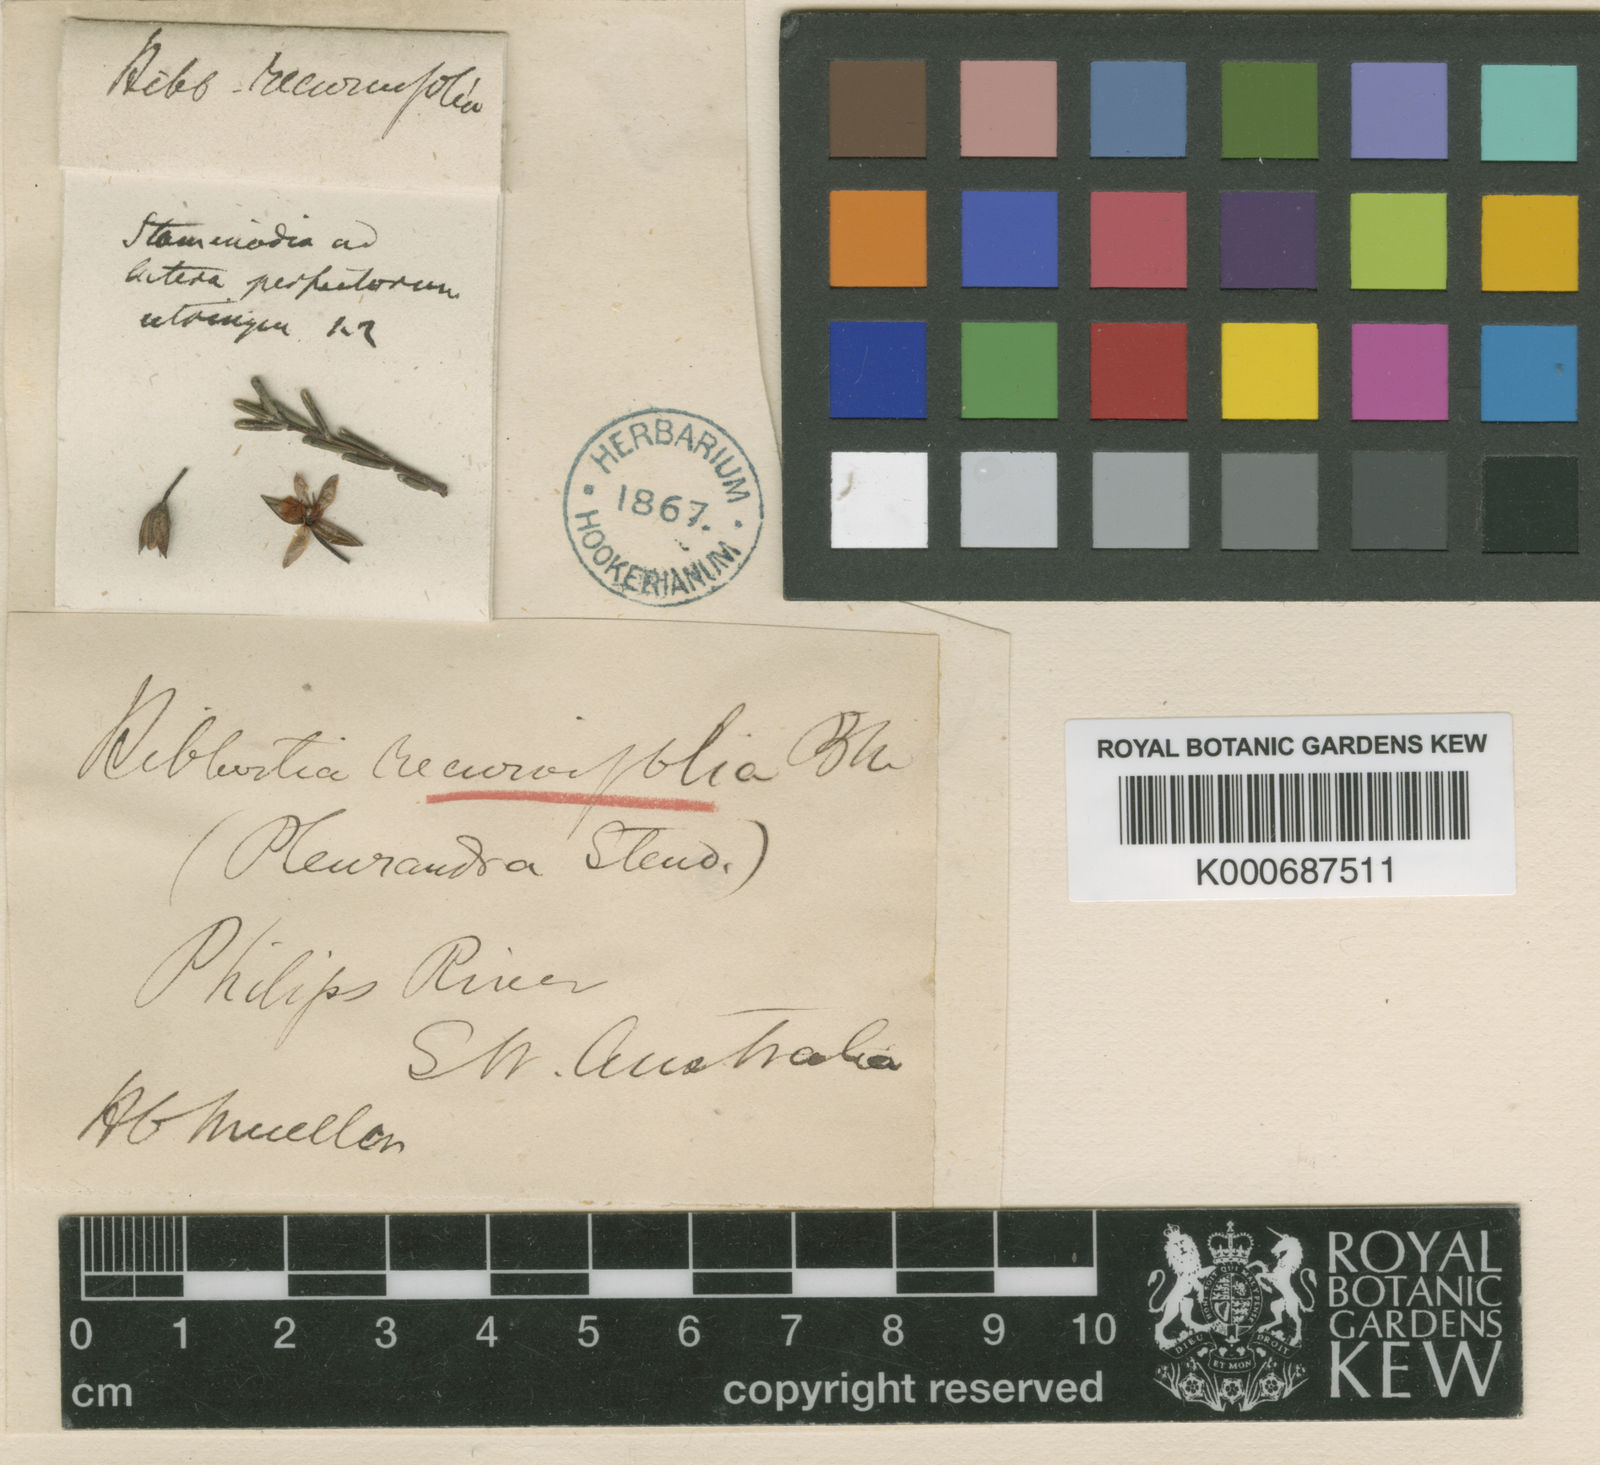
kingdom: Plantae
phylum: Tracheophyta
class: Magnoliopsida
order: Dilleniales
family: Dilleniaceae
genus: Hibbertia
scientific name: Hibbertia lineata
